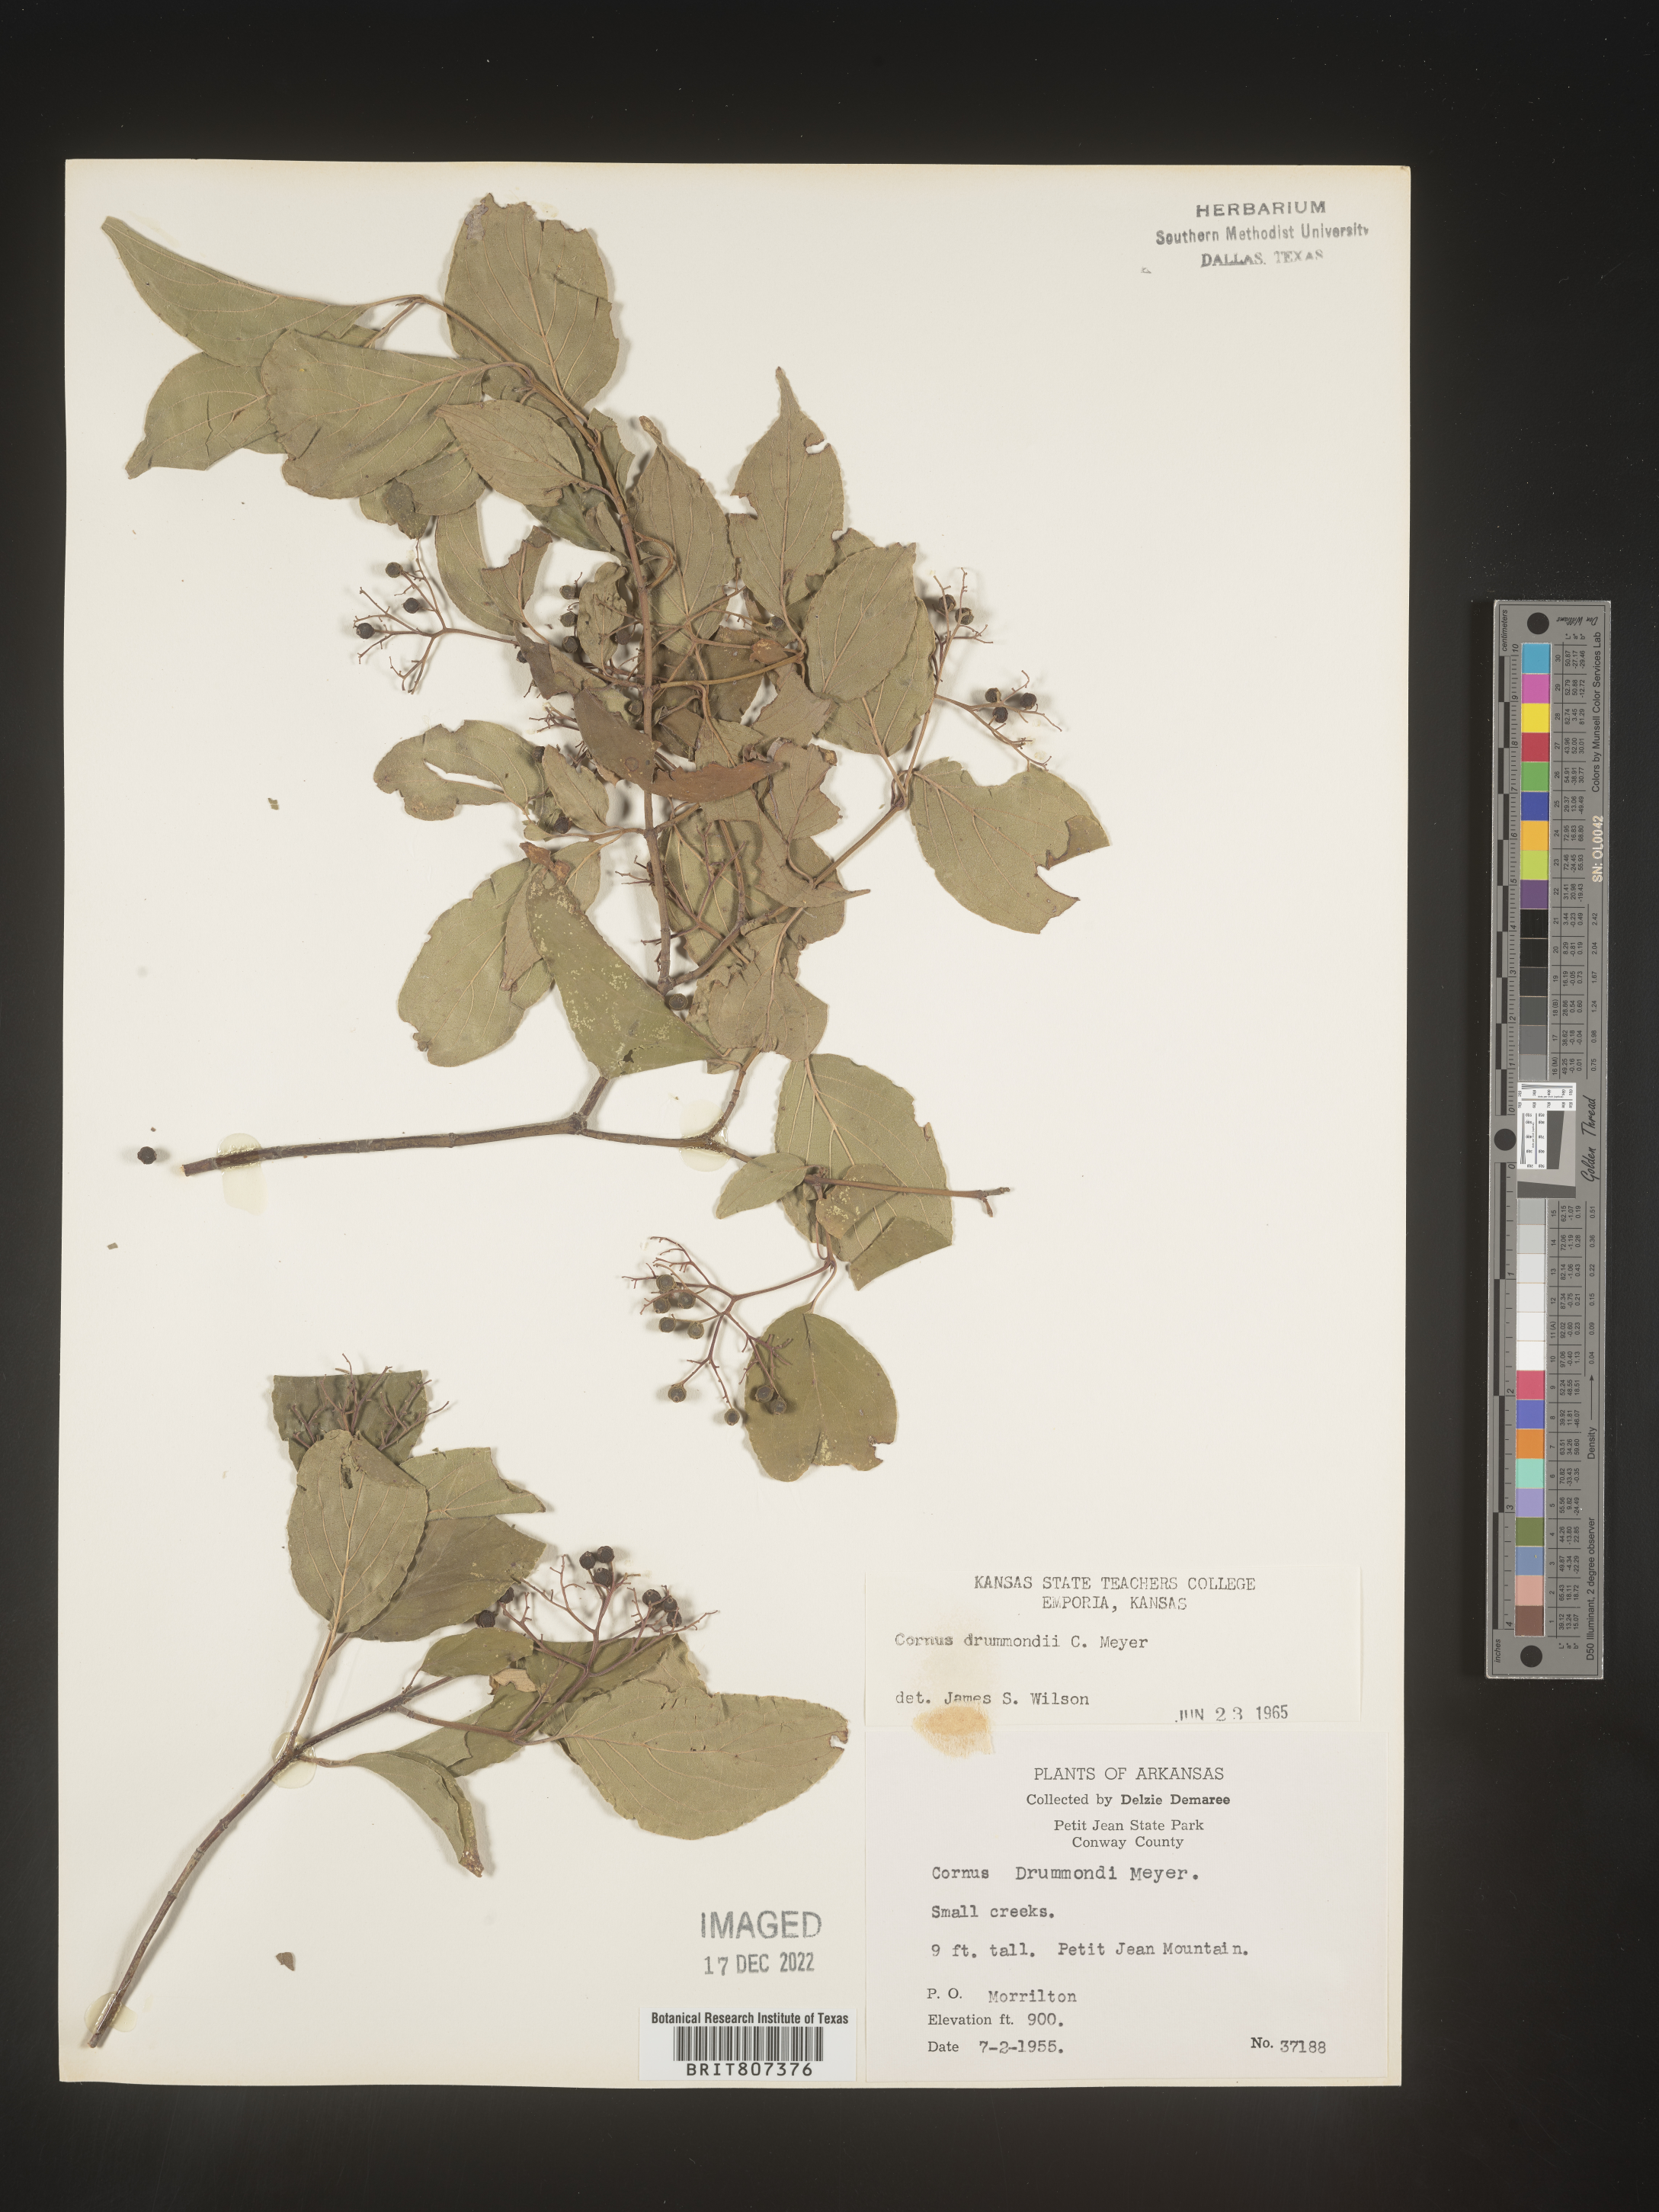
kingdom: Plantae
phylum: Tracheophyta
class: Magnoliopsida
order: Cornales
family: Cornaceae
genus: Cornus
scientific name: Cornus drummondii
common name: Rough-leaf dogwood
